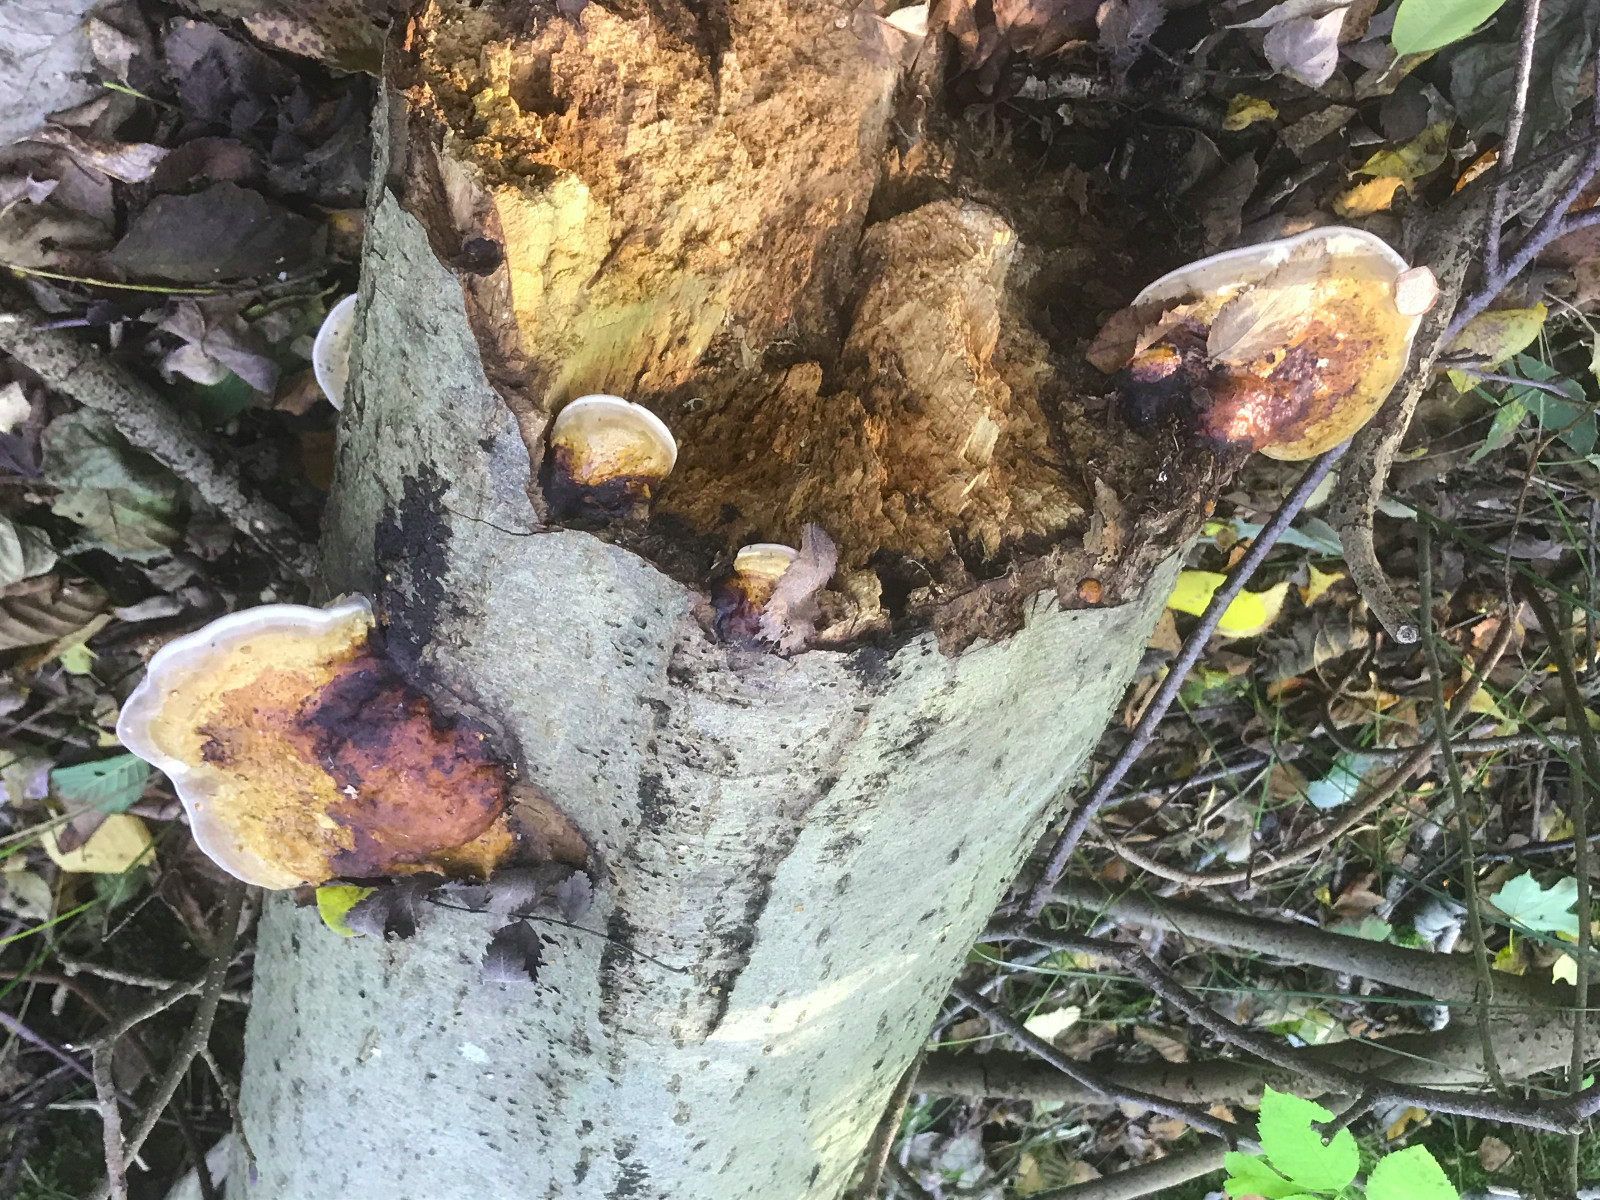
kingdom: Fungi
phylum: Basidiomycota
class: Agaricomycetes
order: Polyporales
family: Fomitopsidaceae
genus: Fomitopsis
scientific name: Fomitopsis pinicola
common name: randbæltet hovporesvamp
